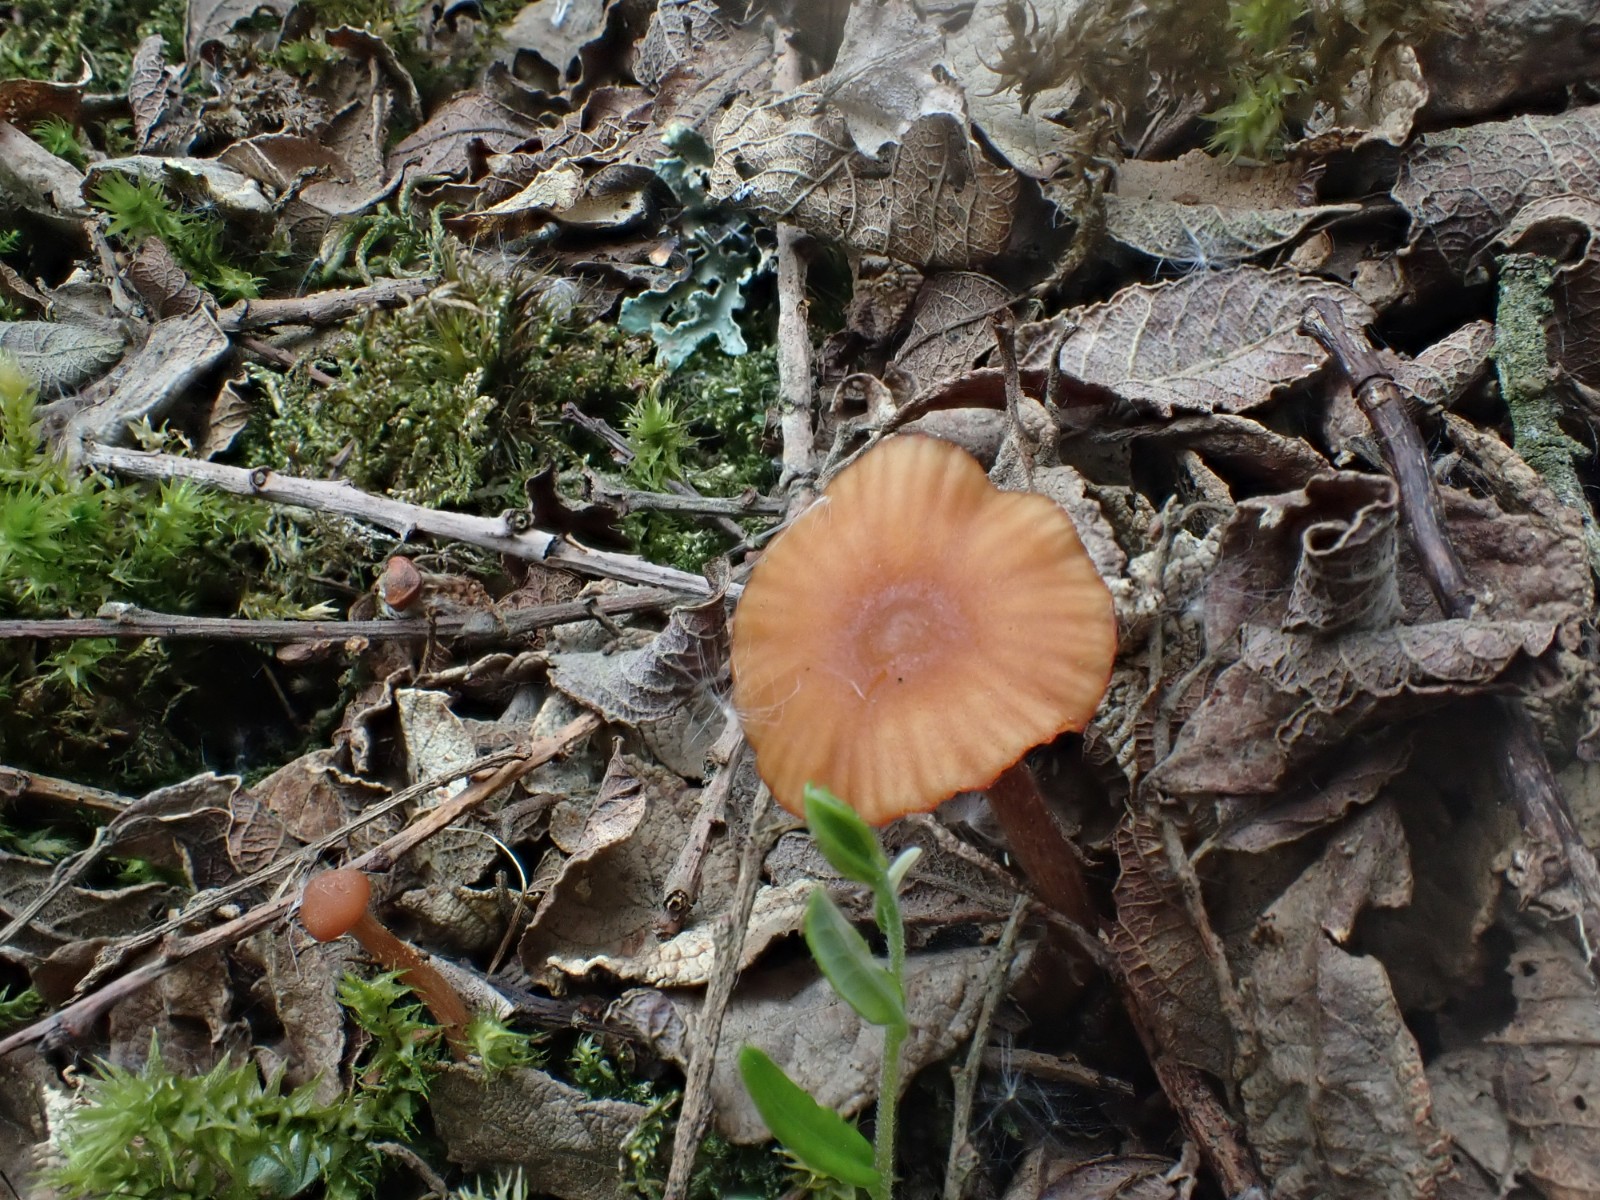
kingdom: Fungi
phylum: Basidiomycota
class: Agaricomycetes
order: Agaricales
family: Hydnangiaceae
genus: Laccaria
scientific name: Laccaria
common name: ametysthat
